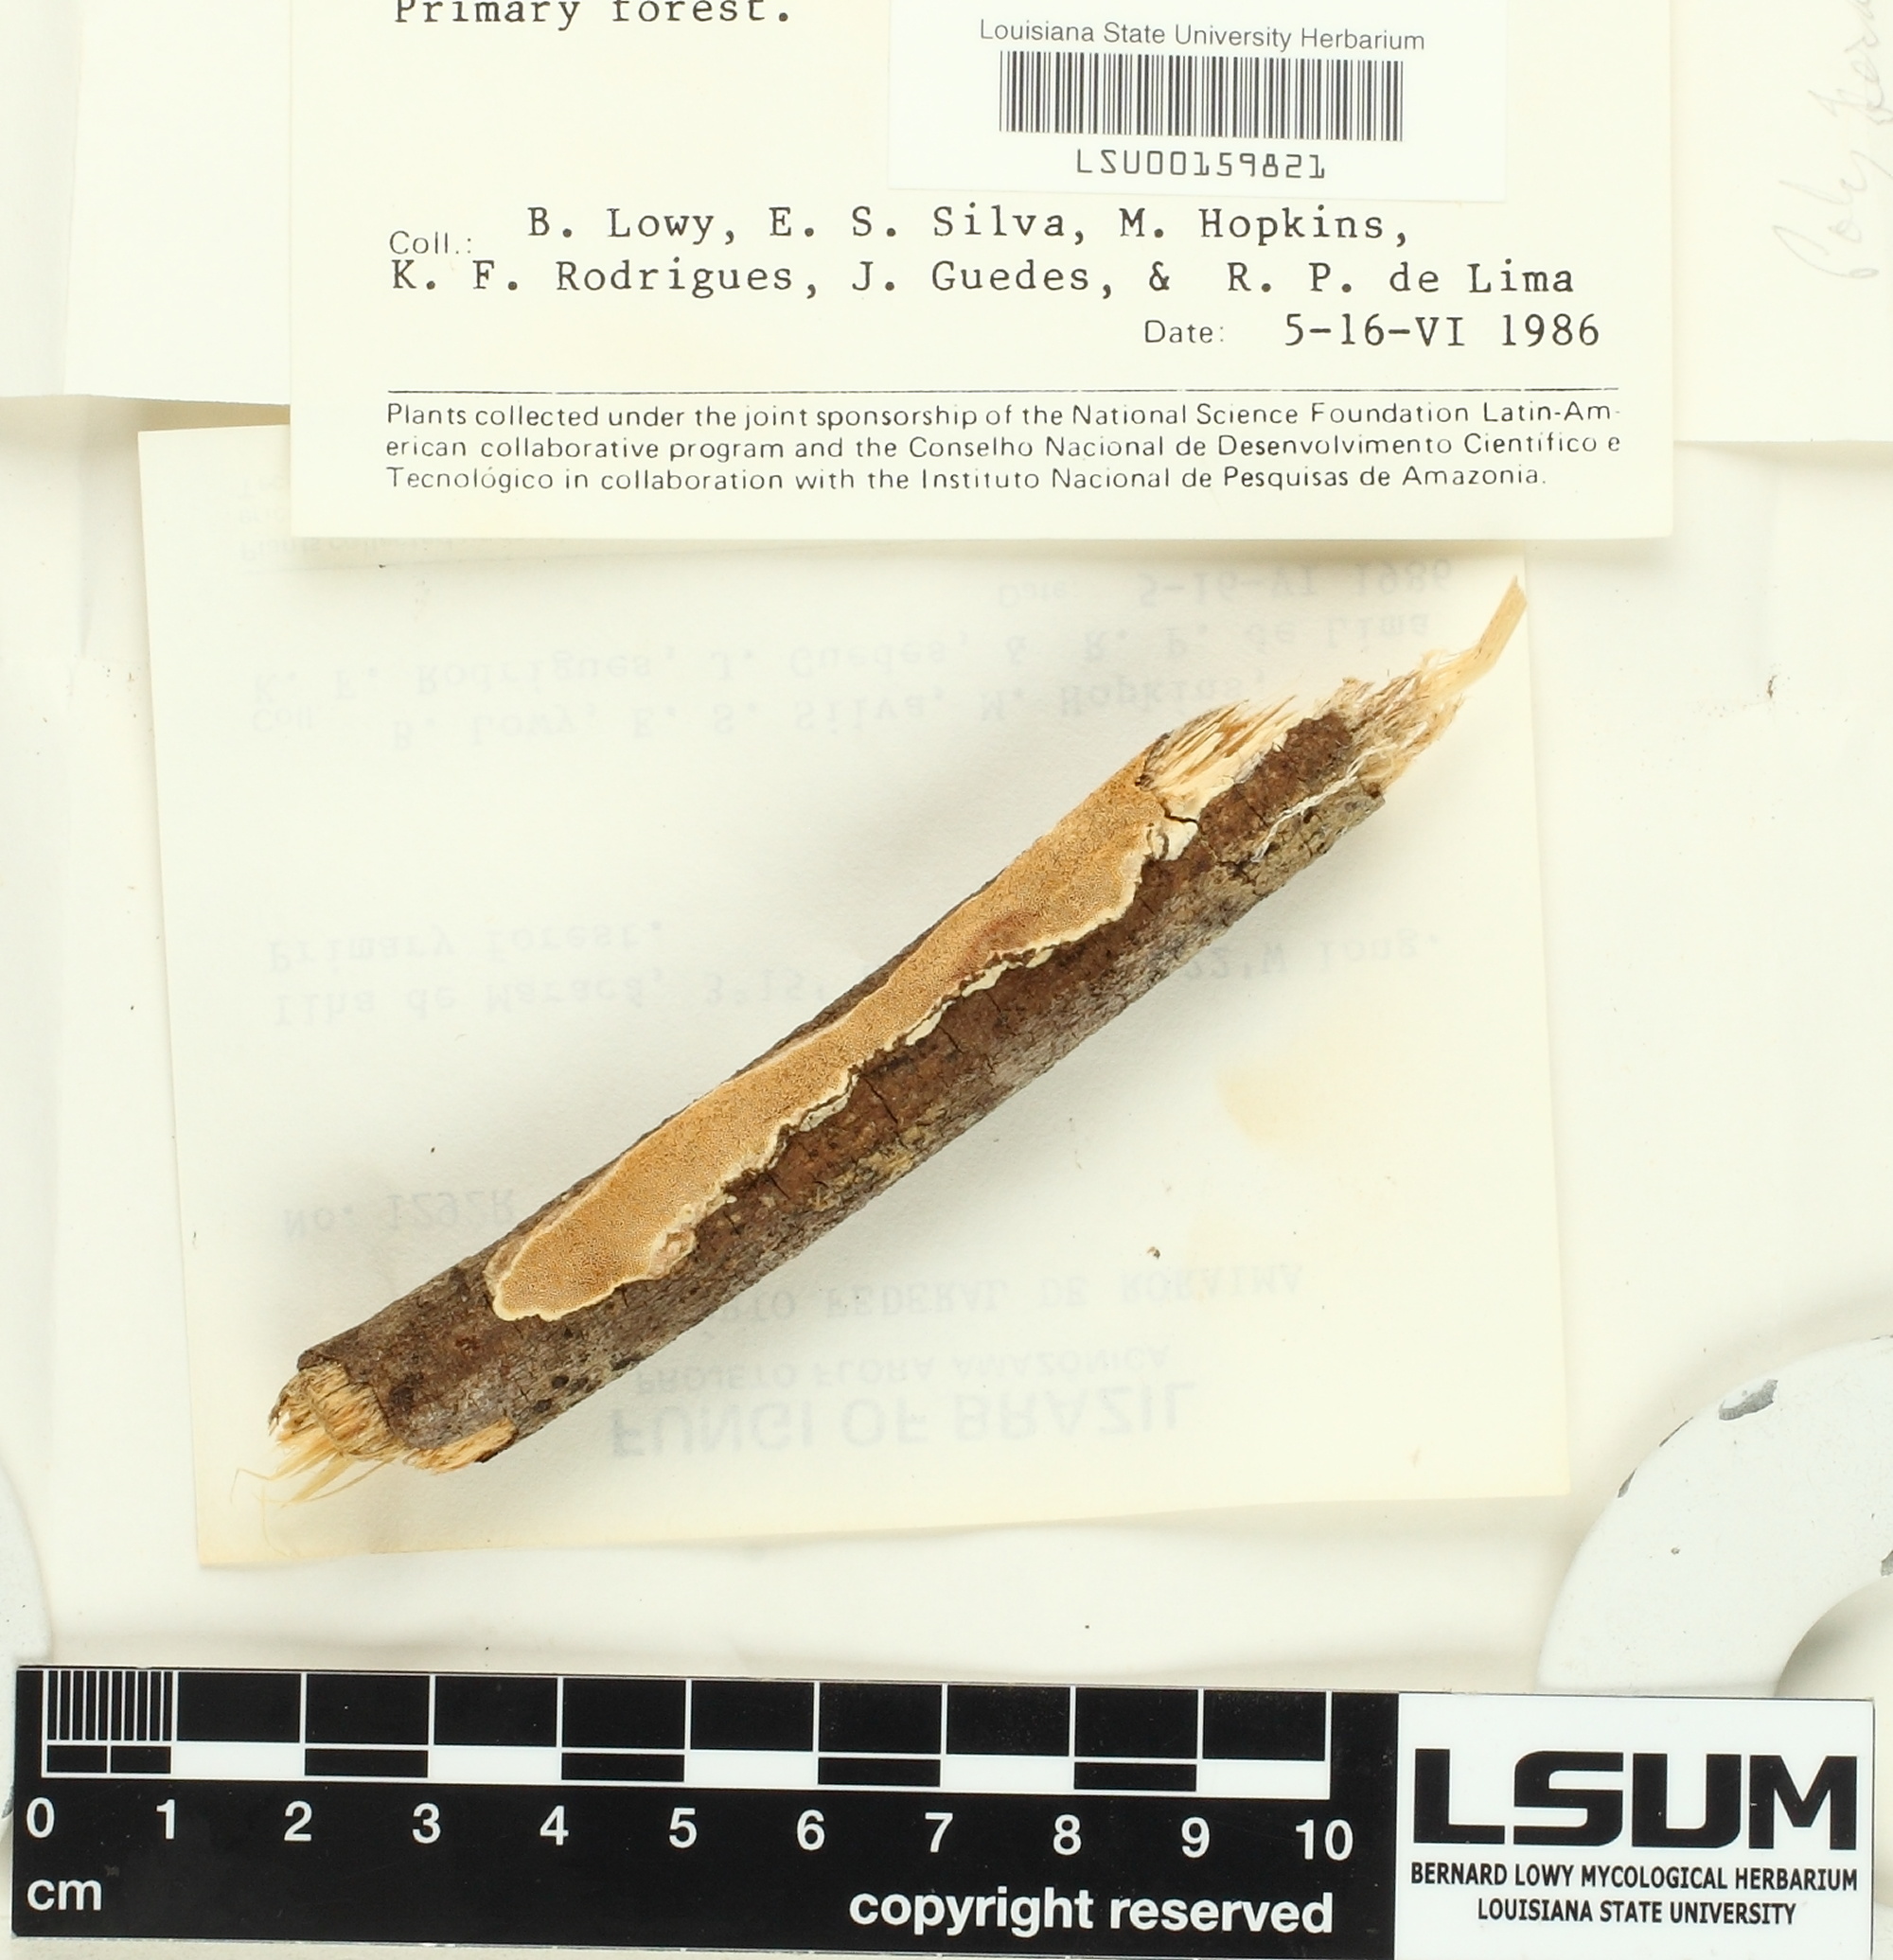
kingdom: Fungi
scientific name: Fungi
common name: Fungi
